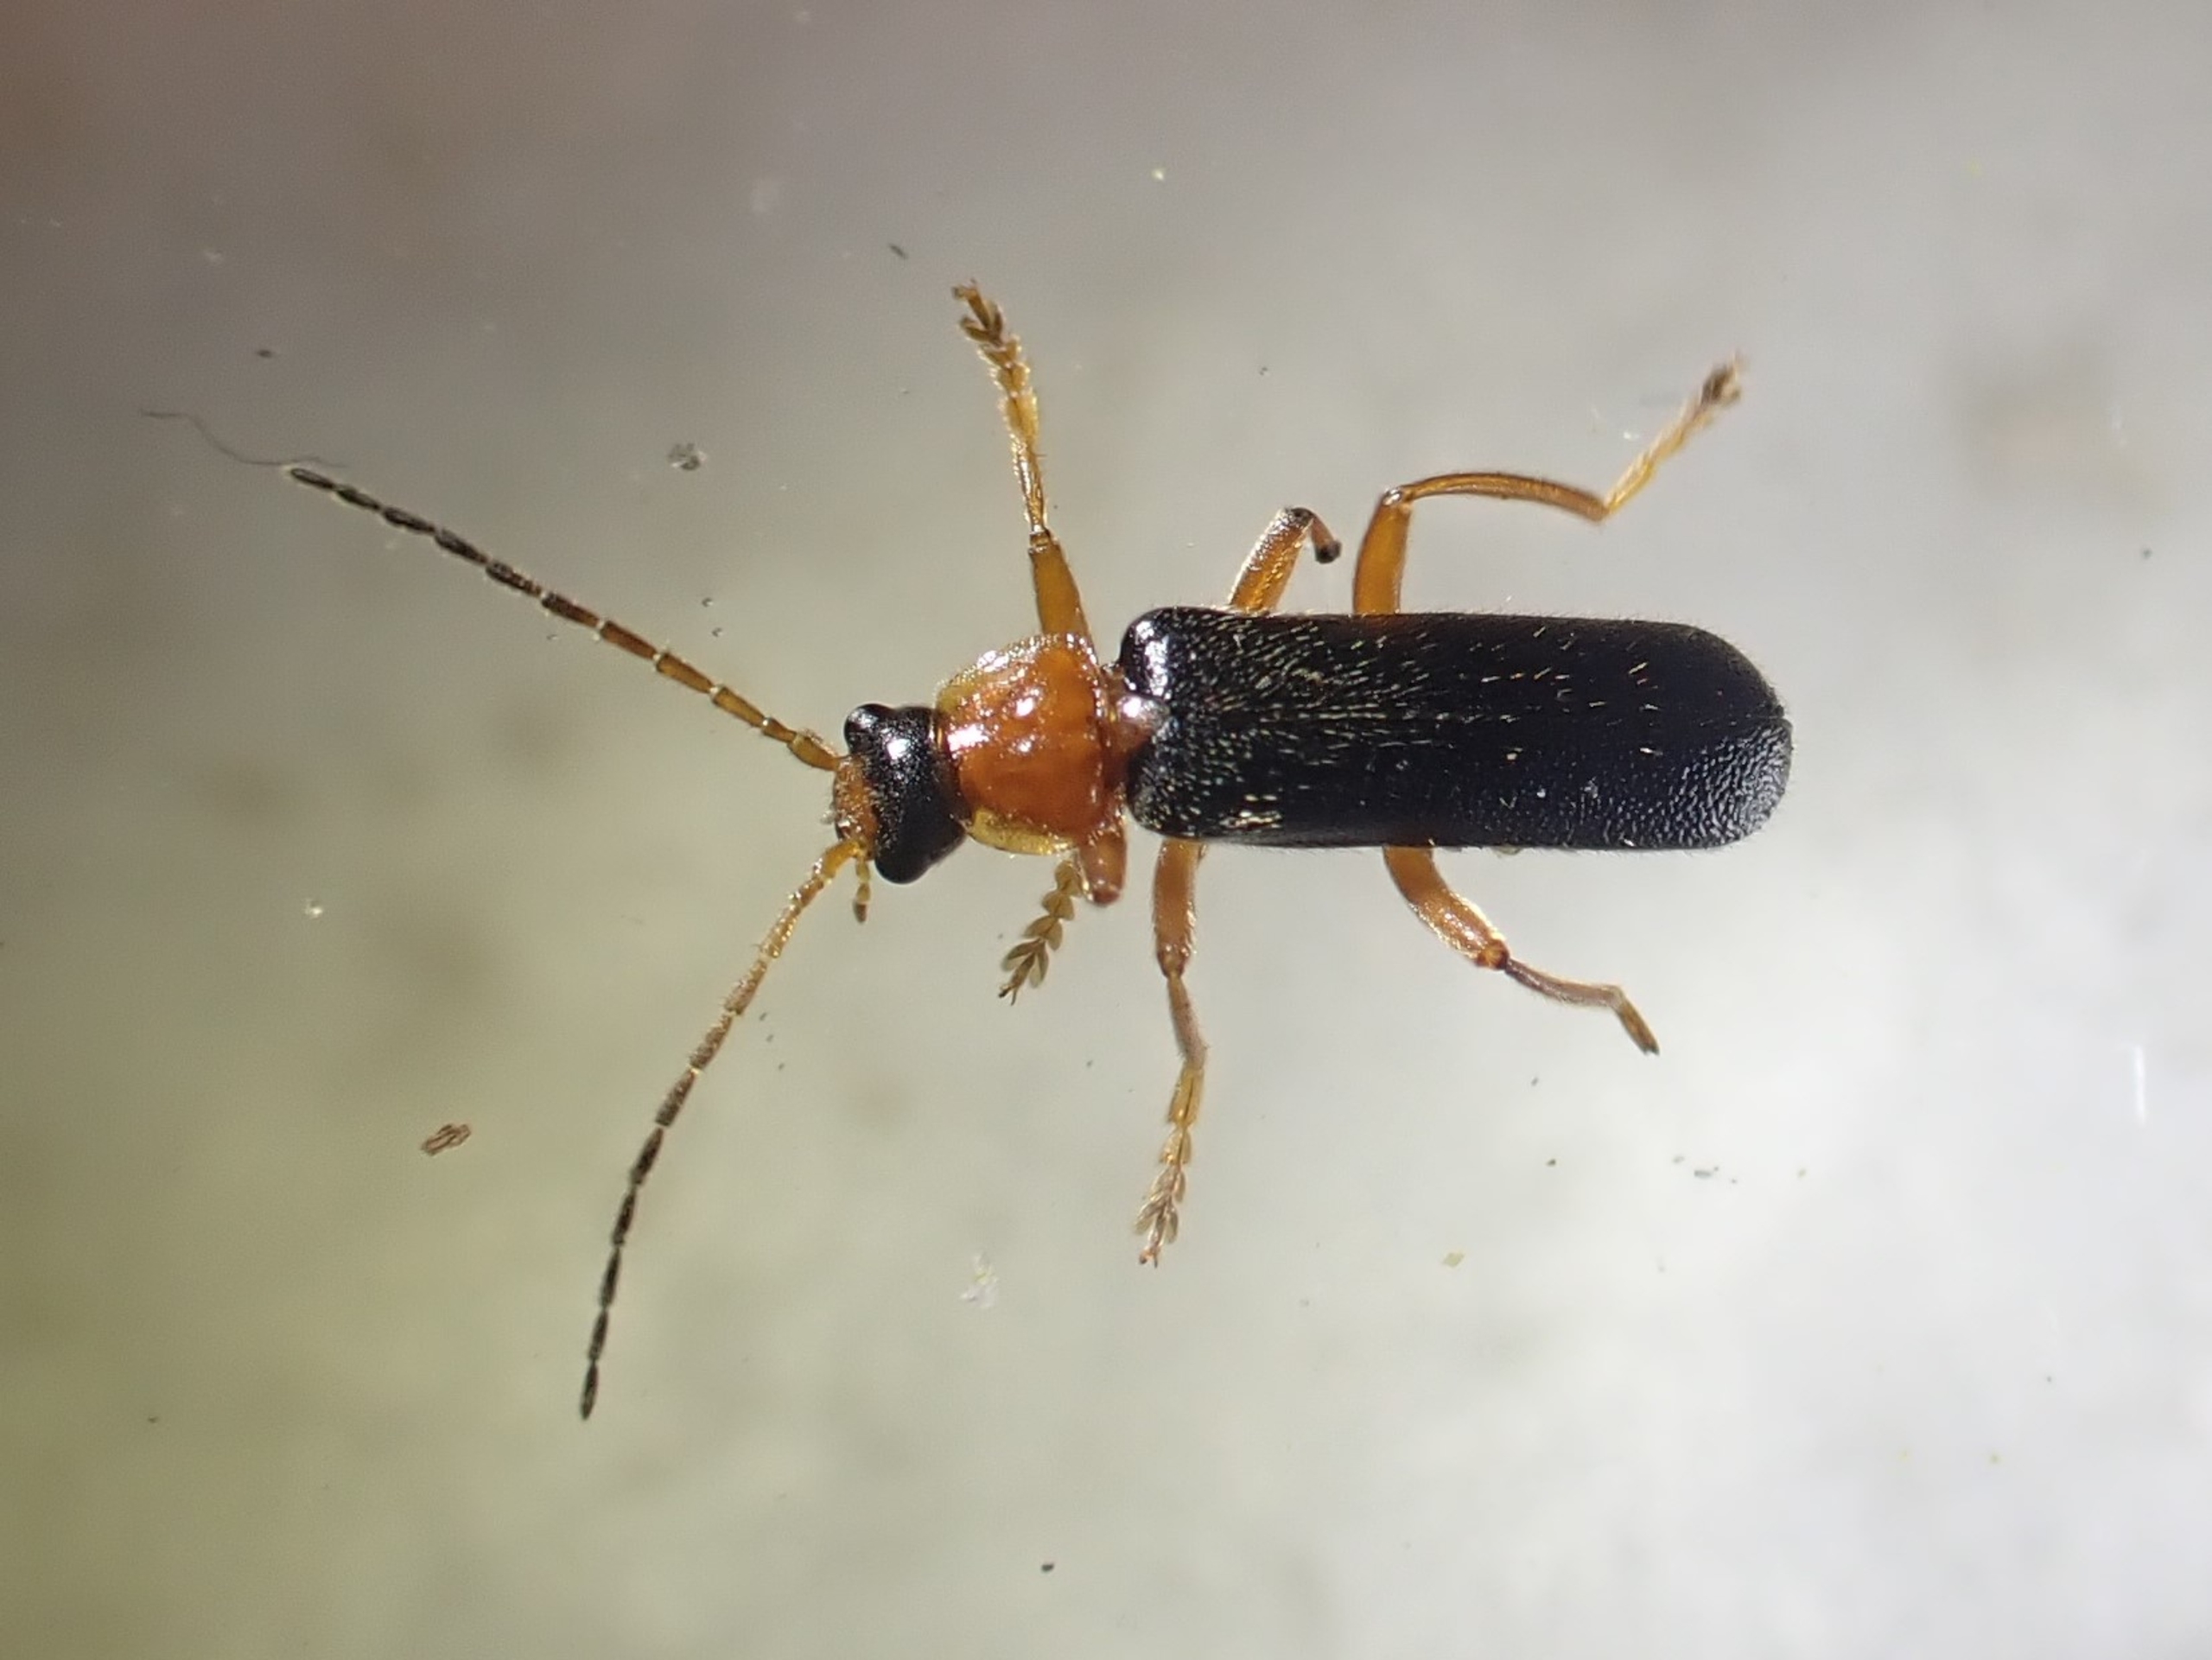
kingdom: Animalia
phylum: Arthropoda
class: Insecta
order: Coleoptera
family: Cantharidae
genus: Cantharis
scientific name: Cantharis nigra
